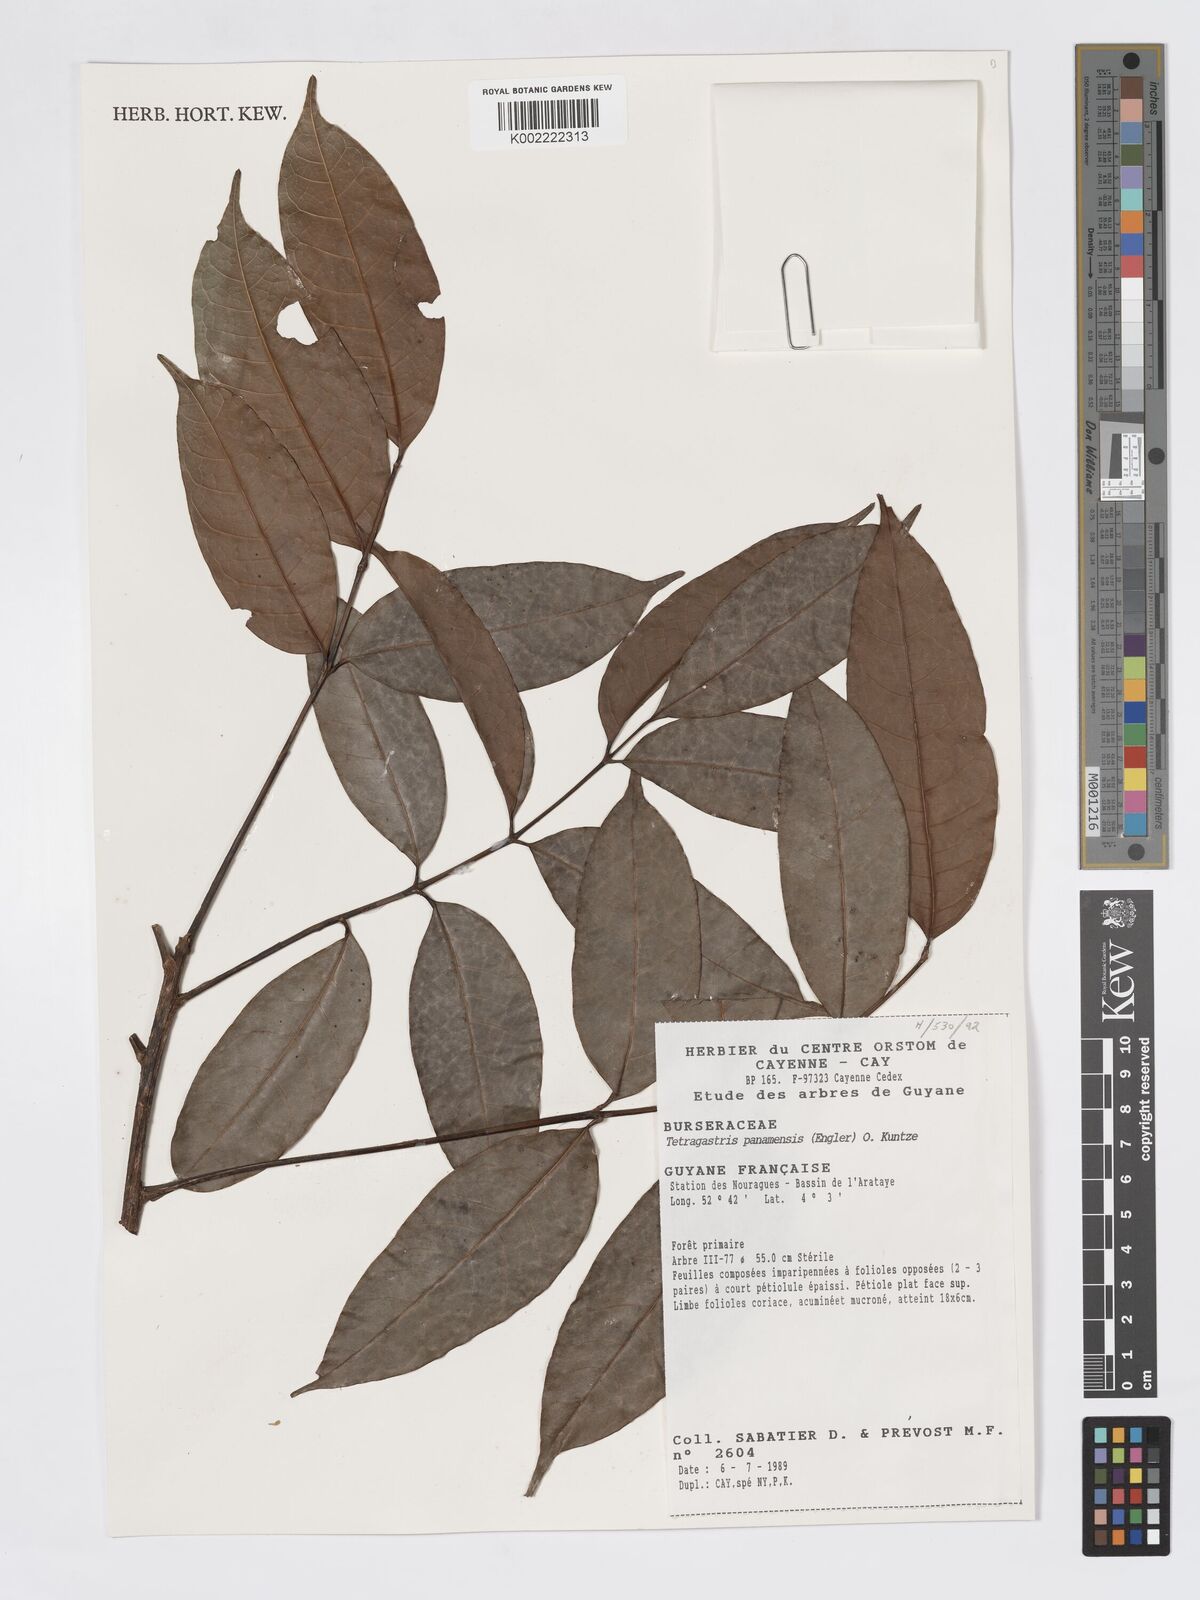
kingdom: Plantae
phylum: Tracheophyta
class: Magnoliopsida
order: Sapindales
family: Burseraceae
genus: Tetragastris
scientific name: Tetragastris panamensis
